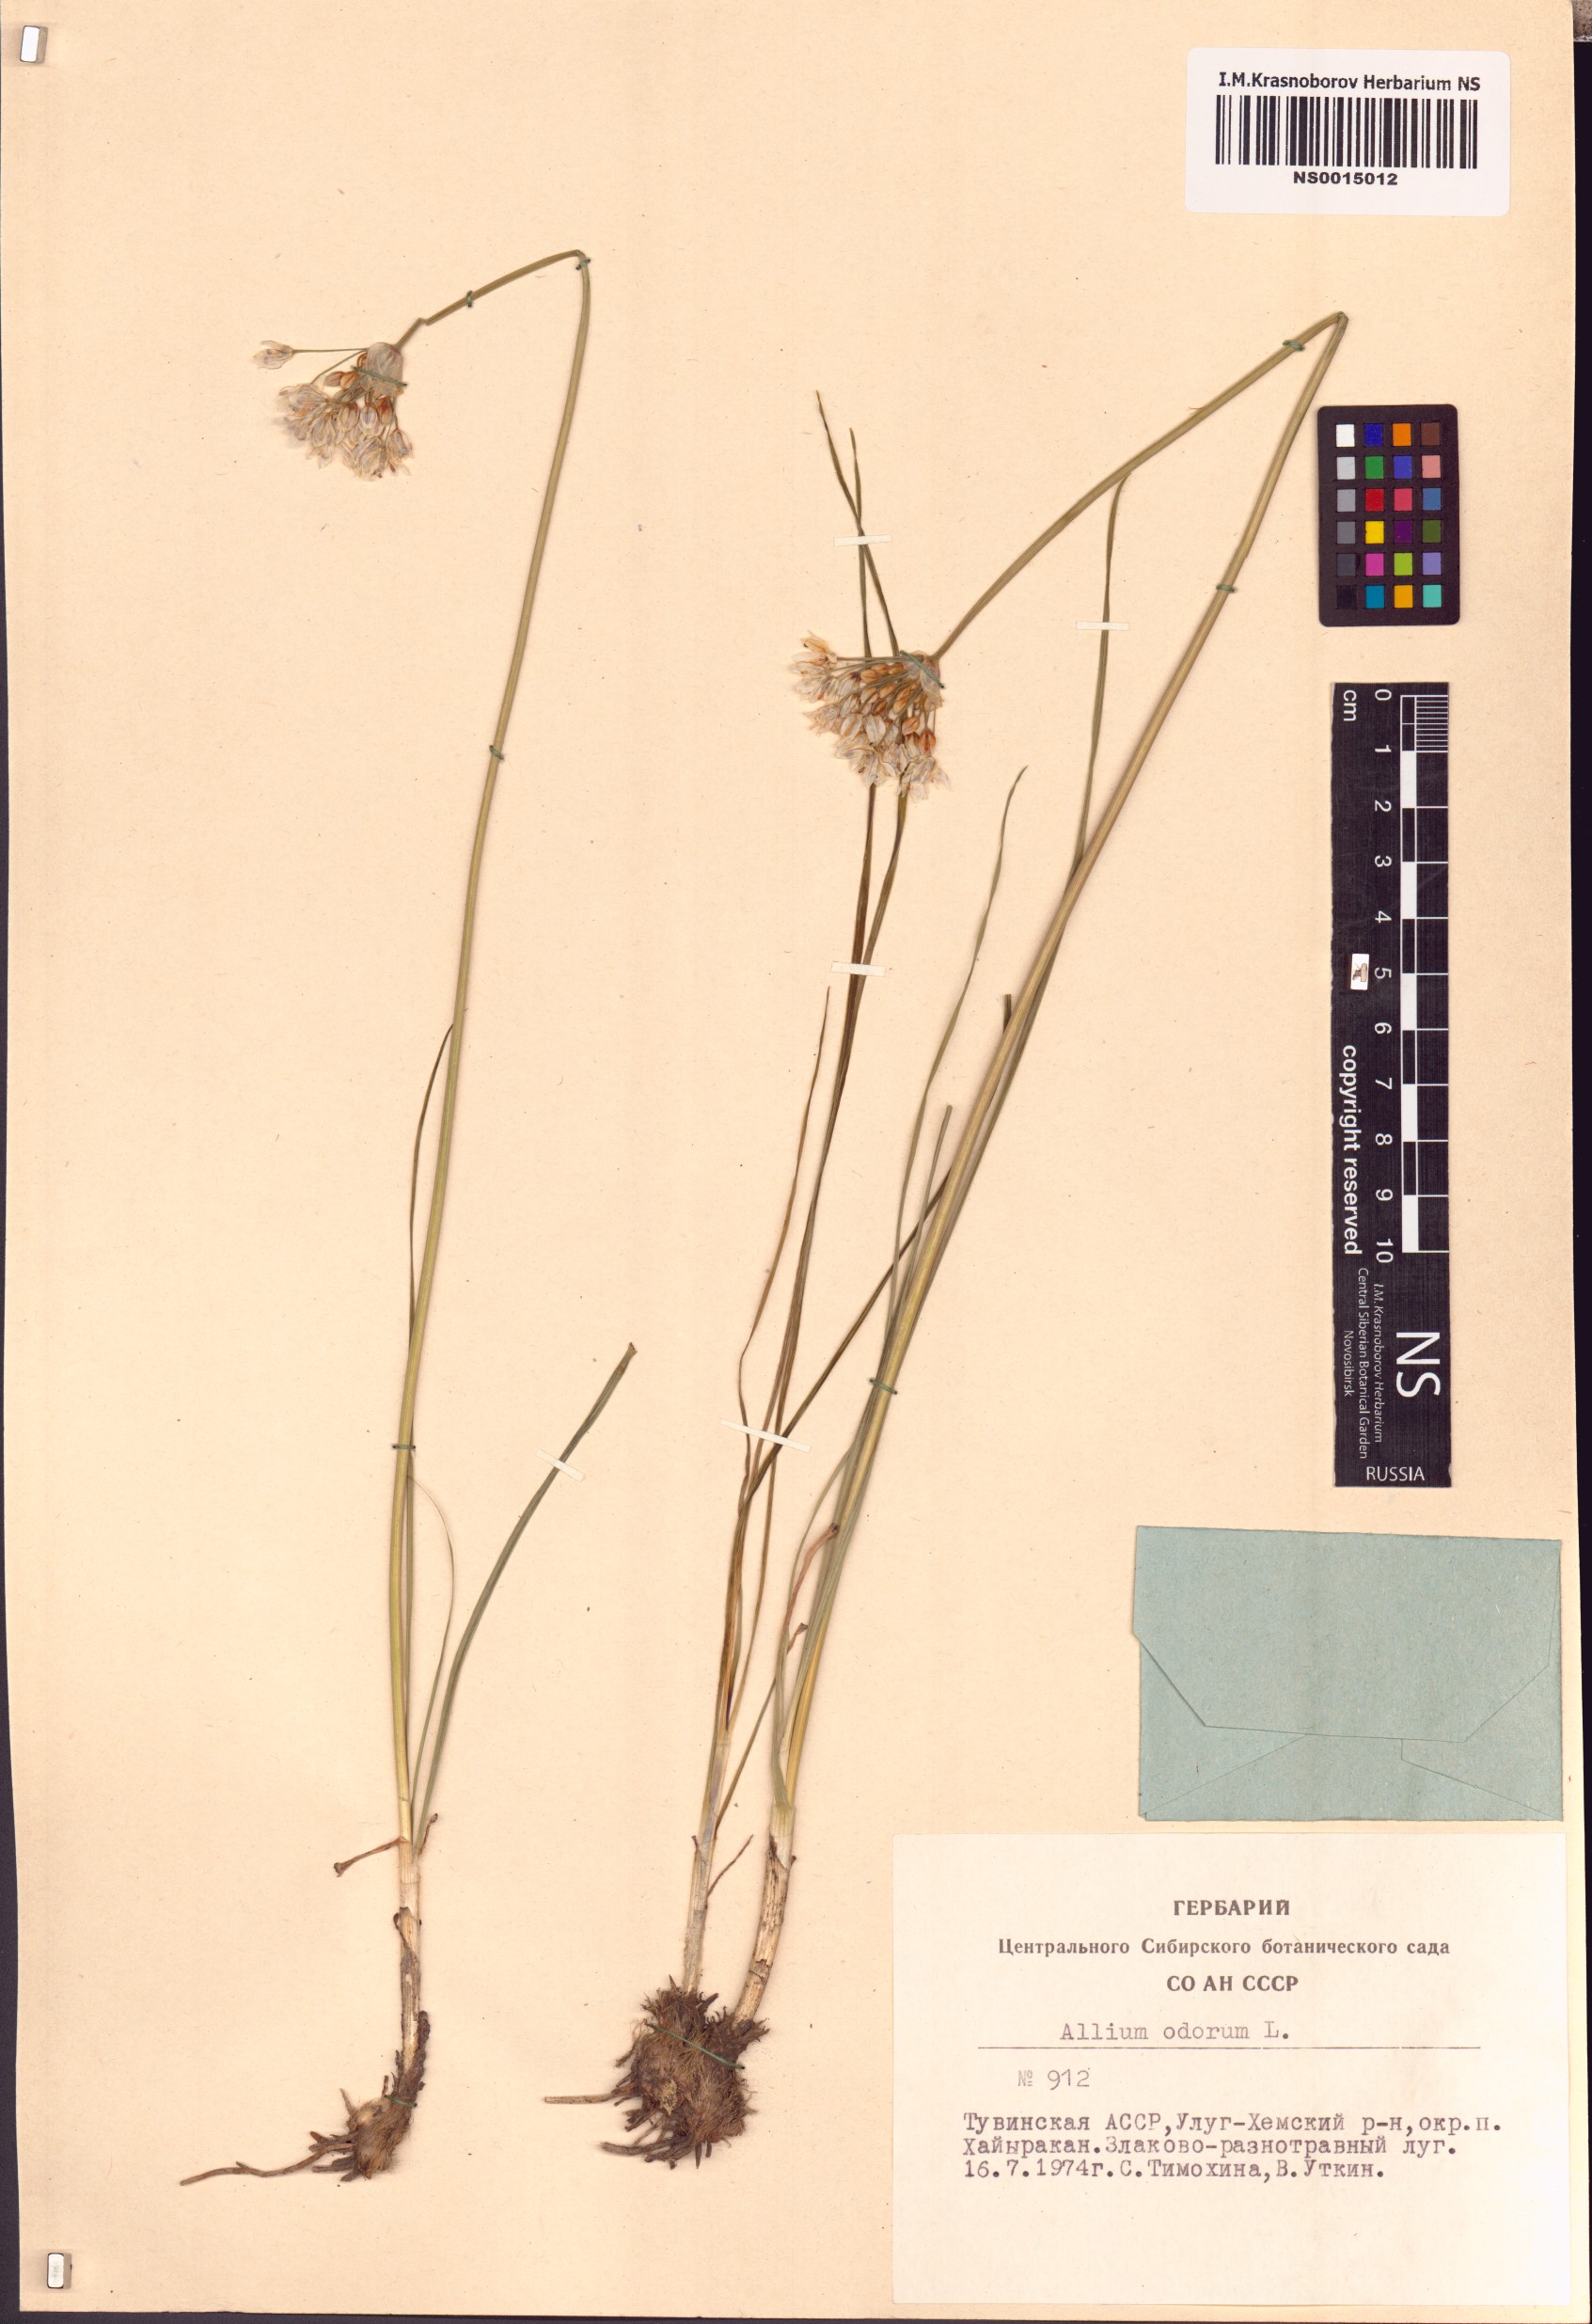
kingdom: Plantae
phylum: Tracheophyta
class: Liliopsida
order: Asparagales
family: Amaryllidaceae
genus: Allium
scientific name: Allium ramosum
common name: Fragrant garlic
